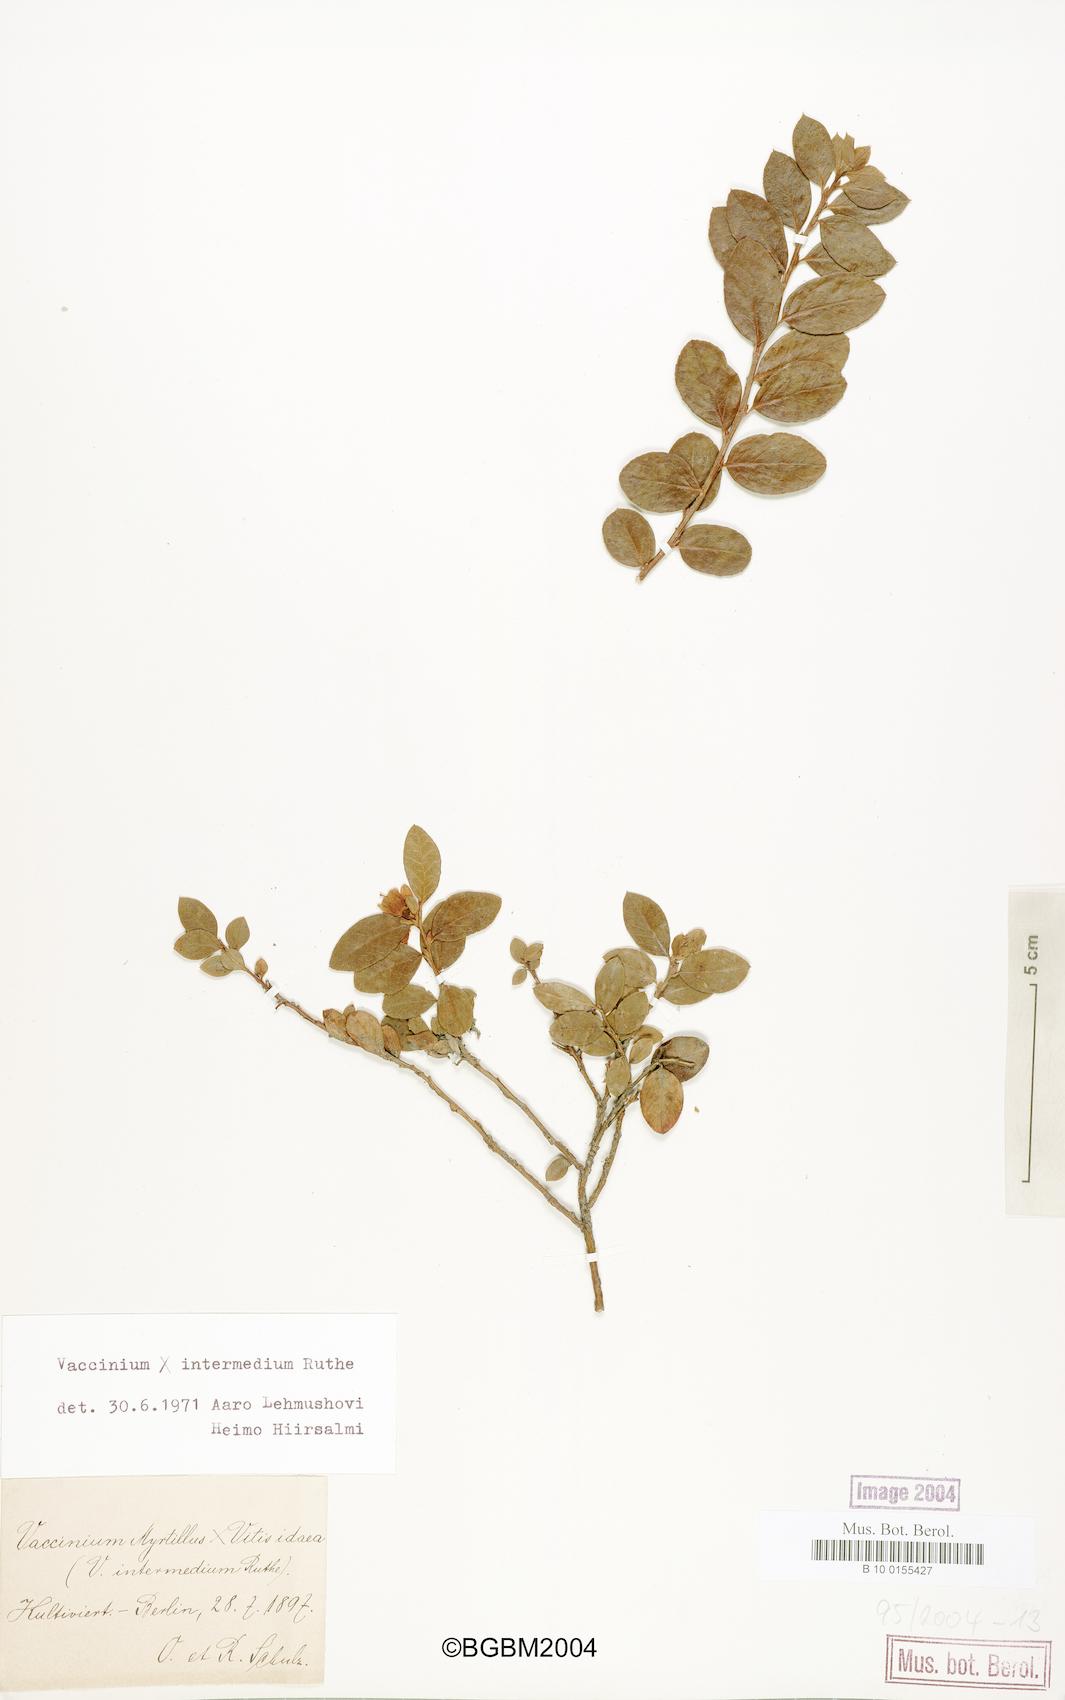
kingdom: Plantae
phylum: Tracheophyta
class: Magnoliopsida
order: Ericales
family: Ericaceae
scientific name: Ericaceae
